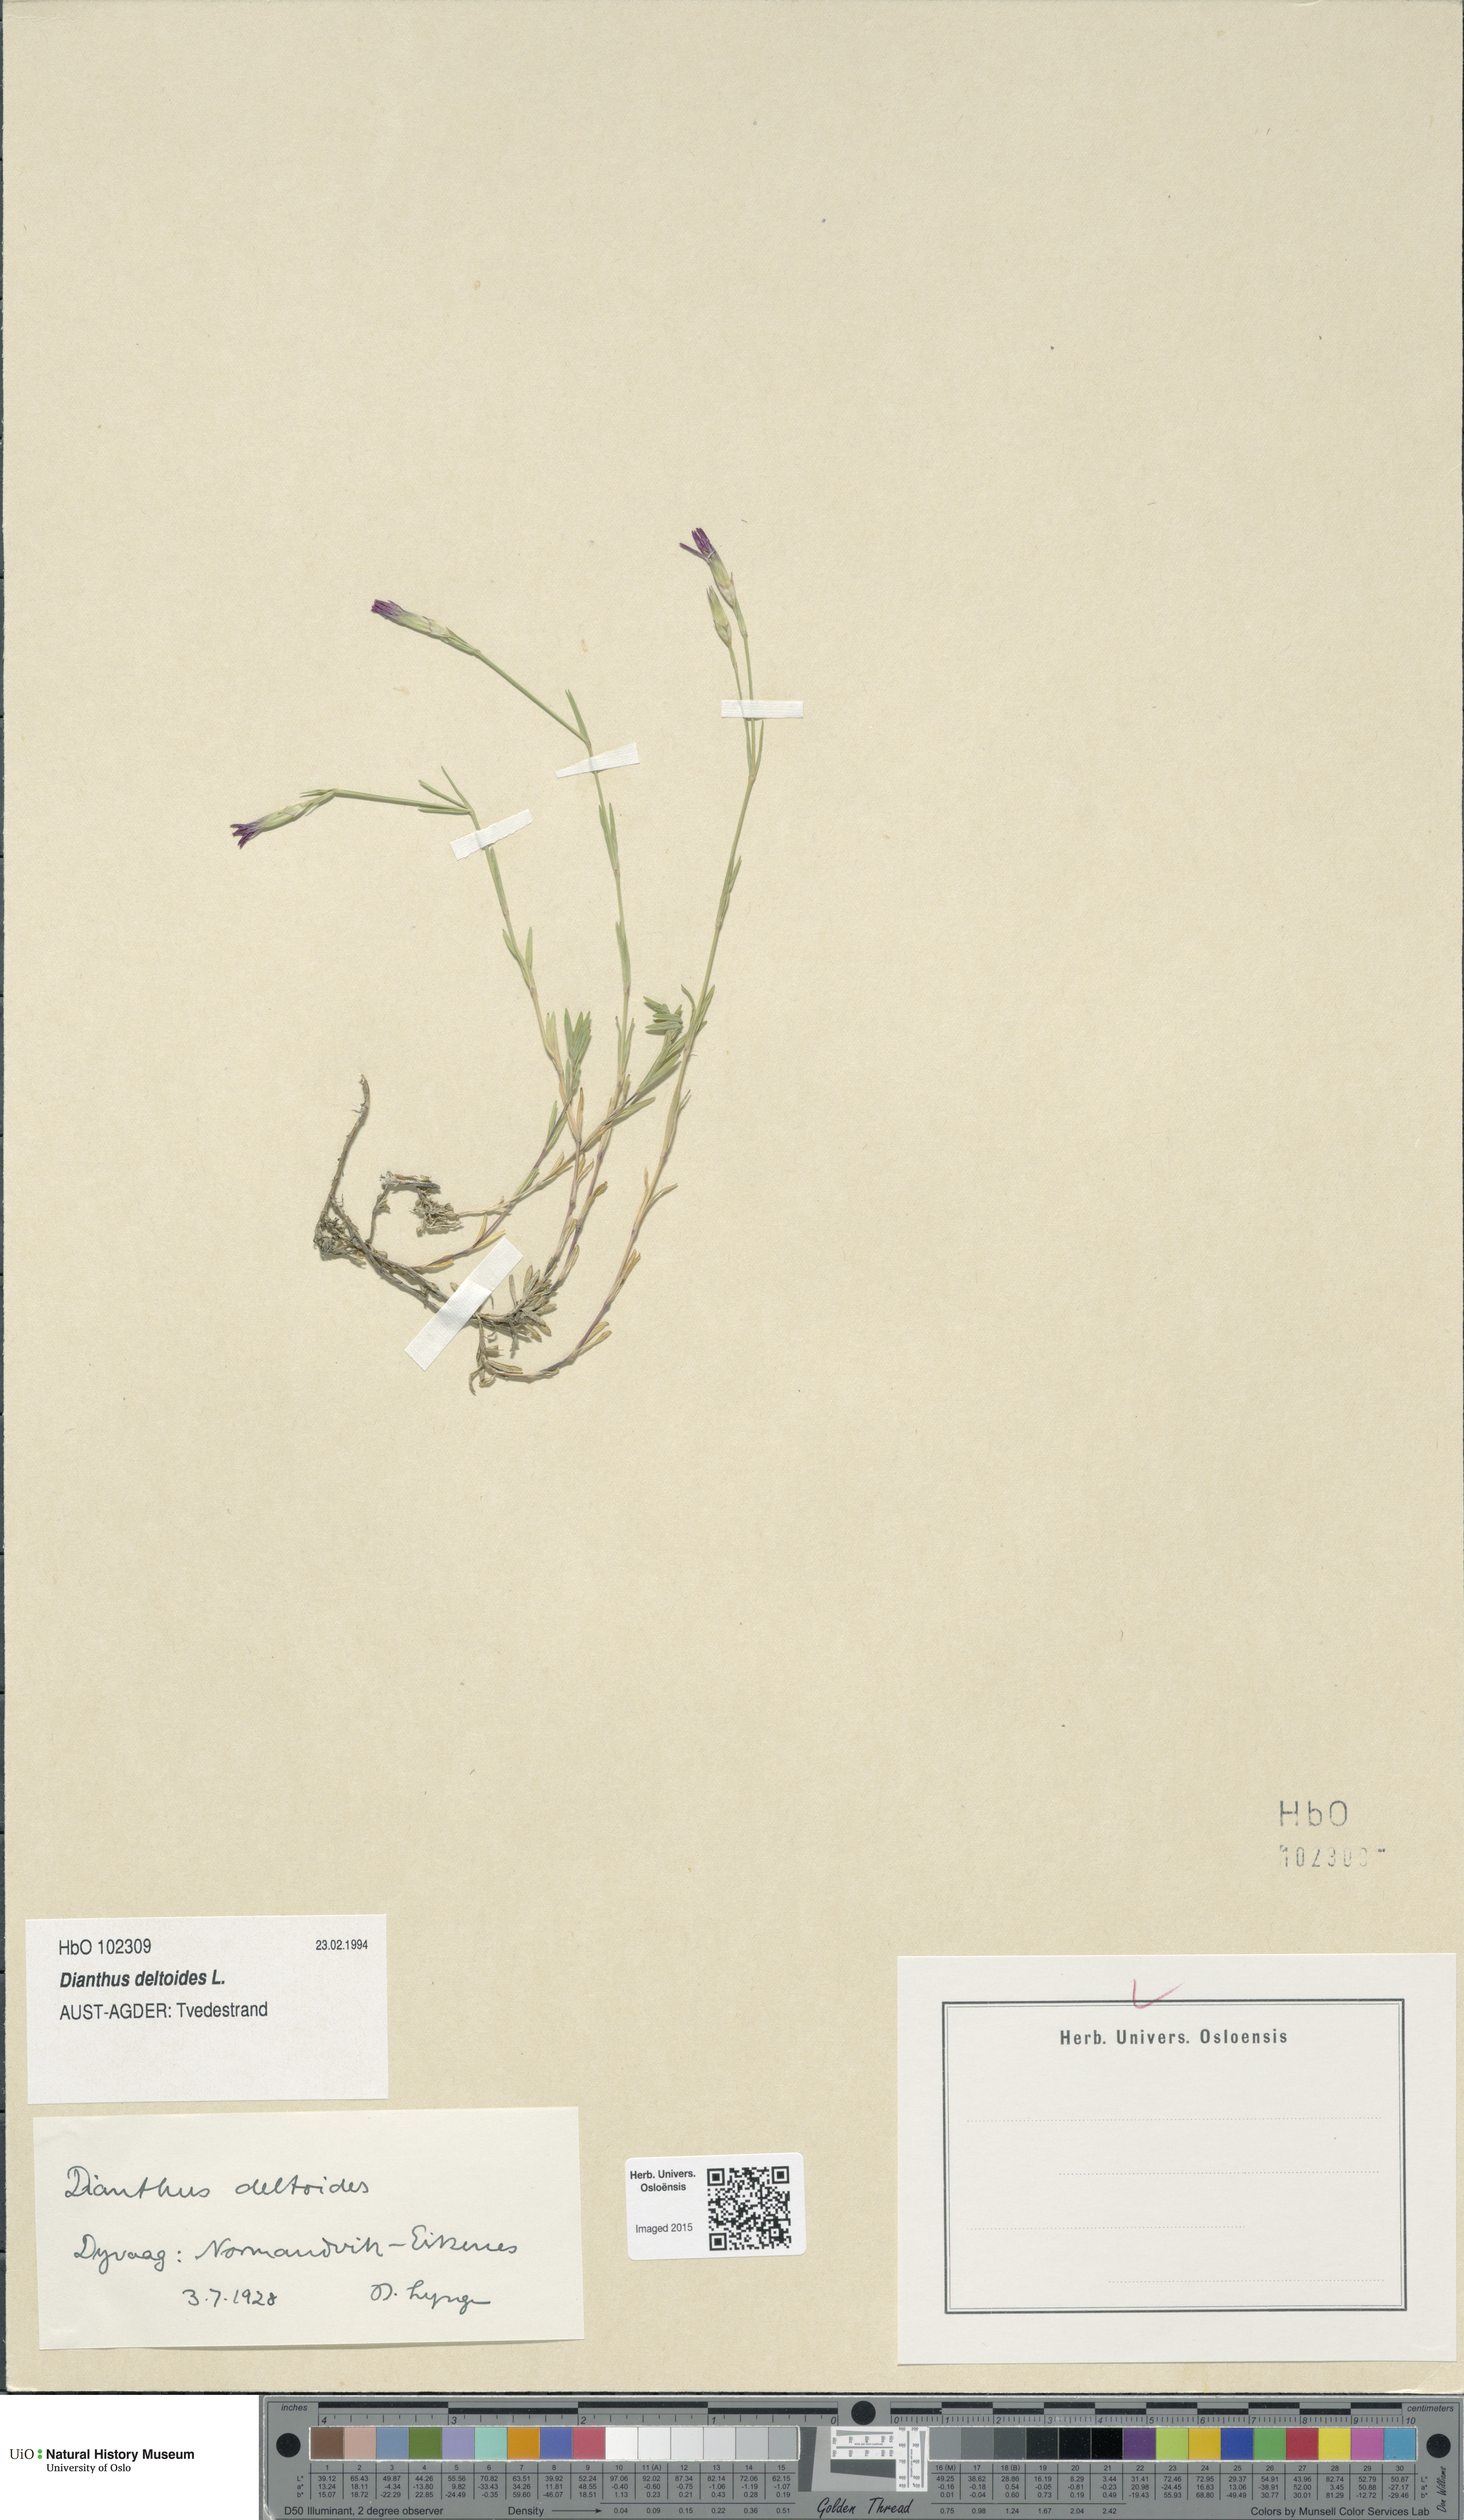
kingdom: Plantae
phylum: Tracheophyta
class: Magnoliopsida
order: Caryophyllales
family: Caryophyllaceae
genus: Dianthus
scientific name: Dianthus deltoides
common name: Maiden pink
